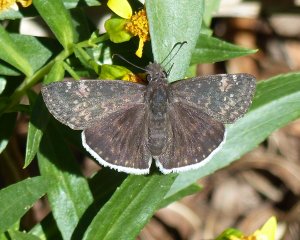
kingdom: Animalia
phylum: Arthropoda
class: Insecta
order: Lepidoptera
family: Hesperiidae
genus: Erynnis
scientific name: Erynnis funeralis
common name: Funereal Duskywing
